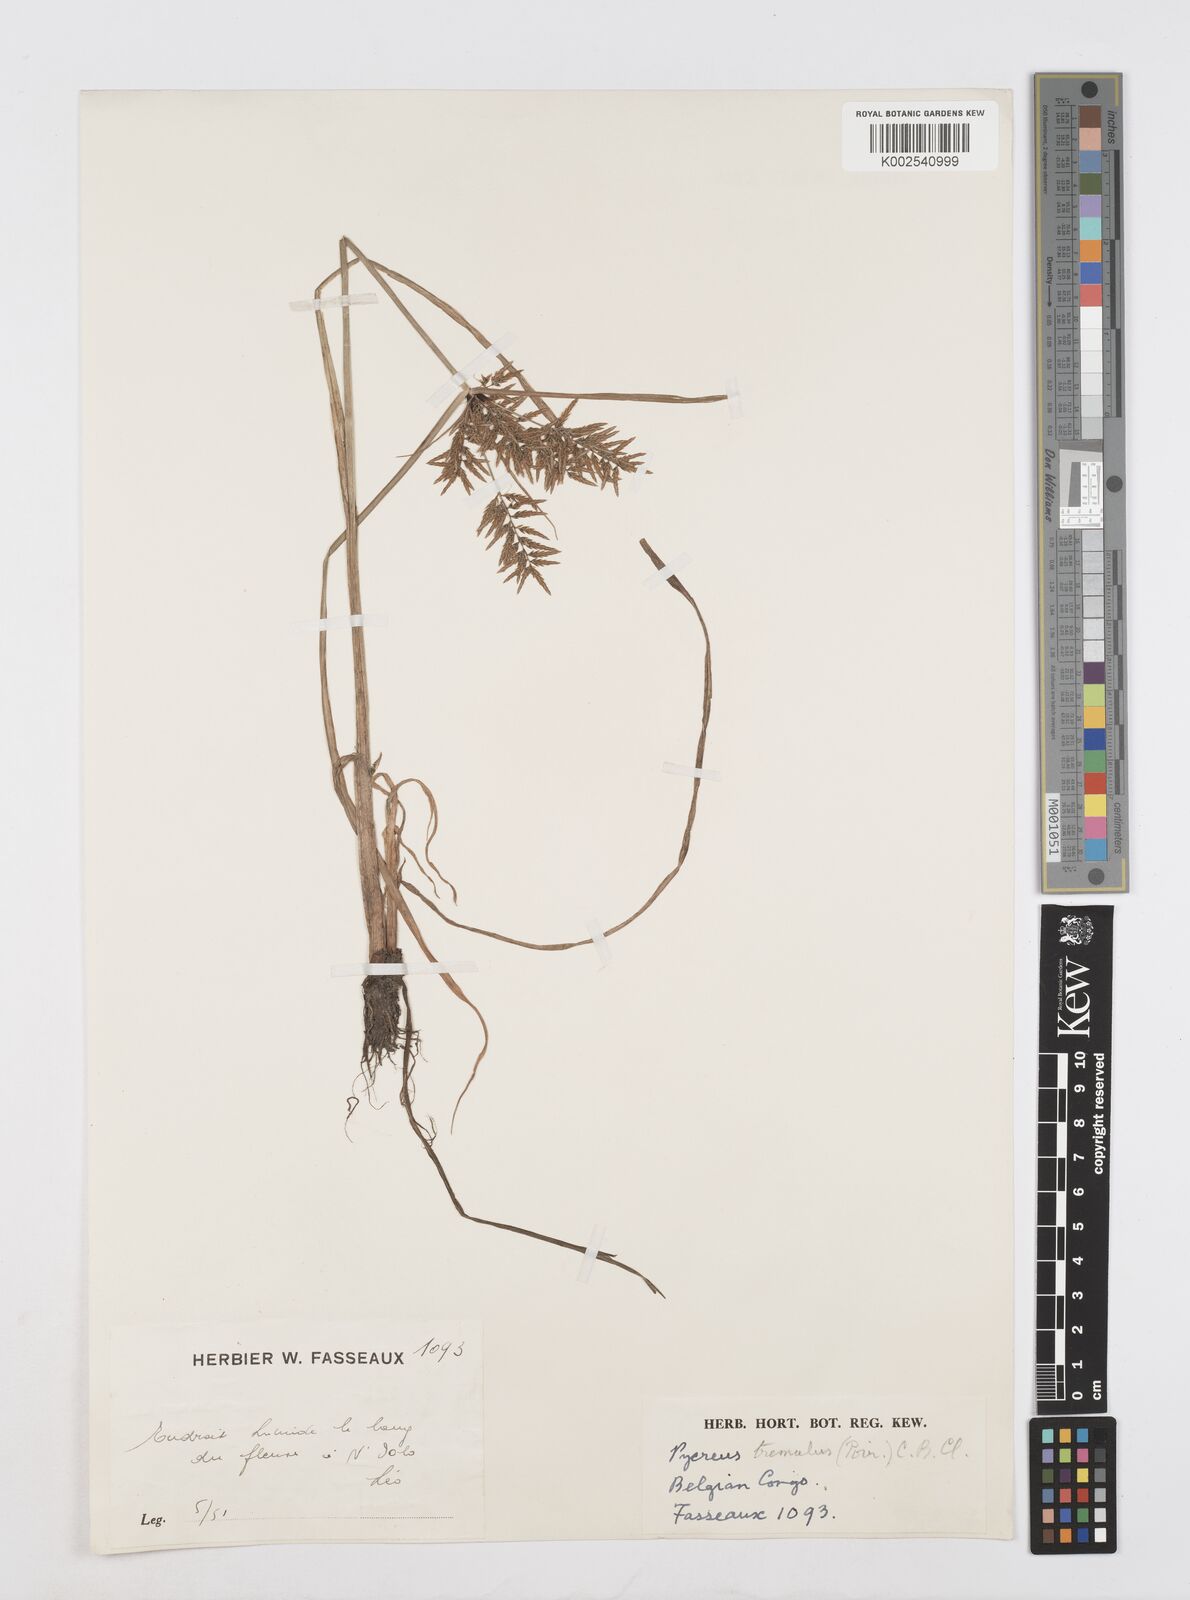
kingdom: Plantae
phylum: Tracheophyta
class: Liliopsida
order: Poales
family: Cyperaceae
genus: Cyperus
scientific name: Cyperus macrostachyos
